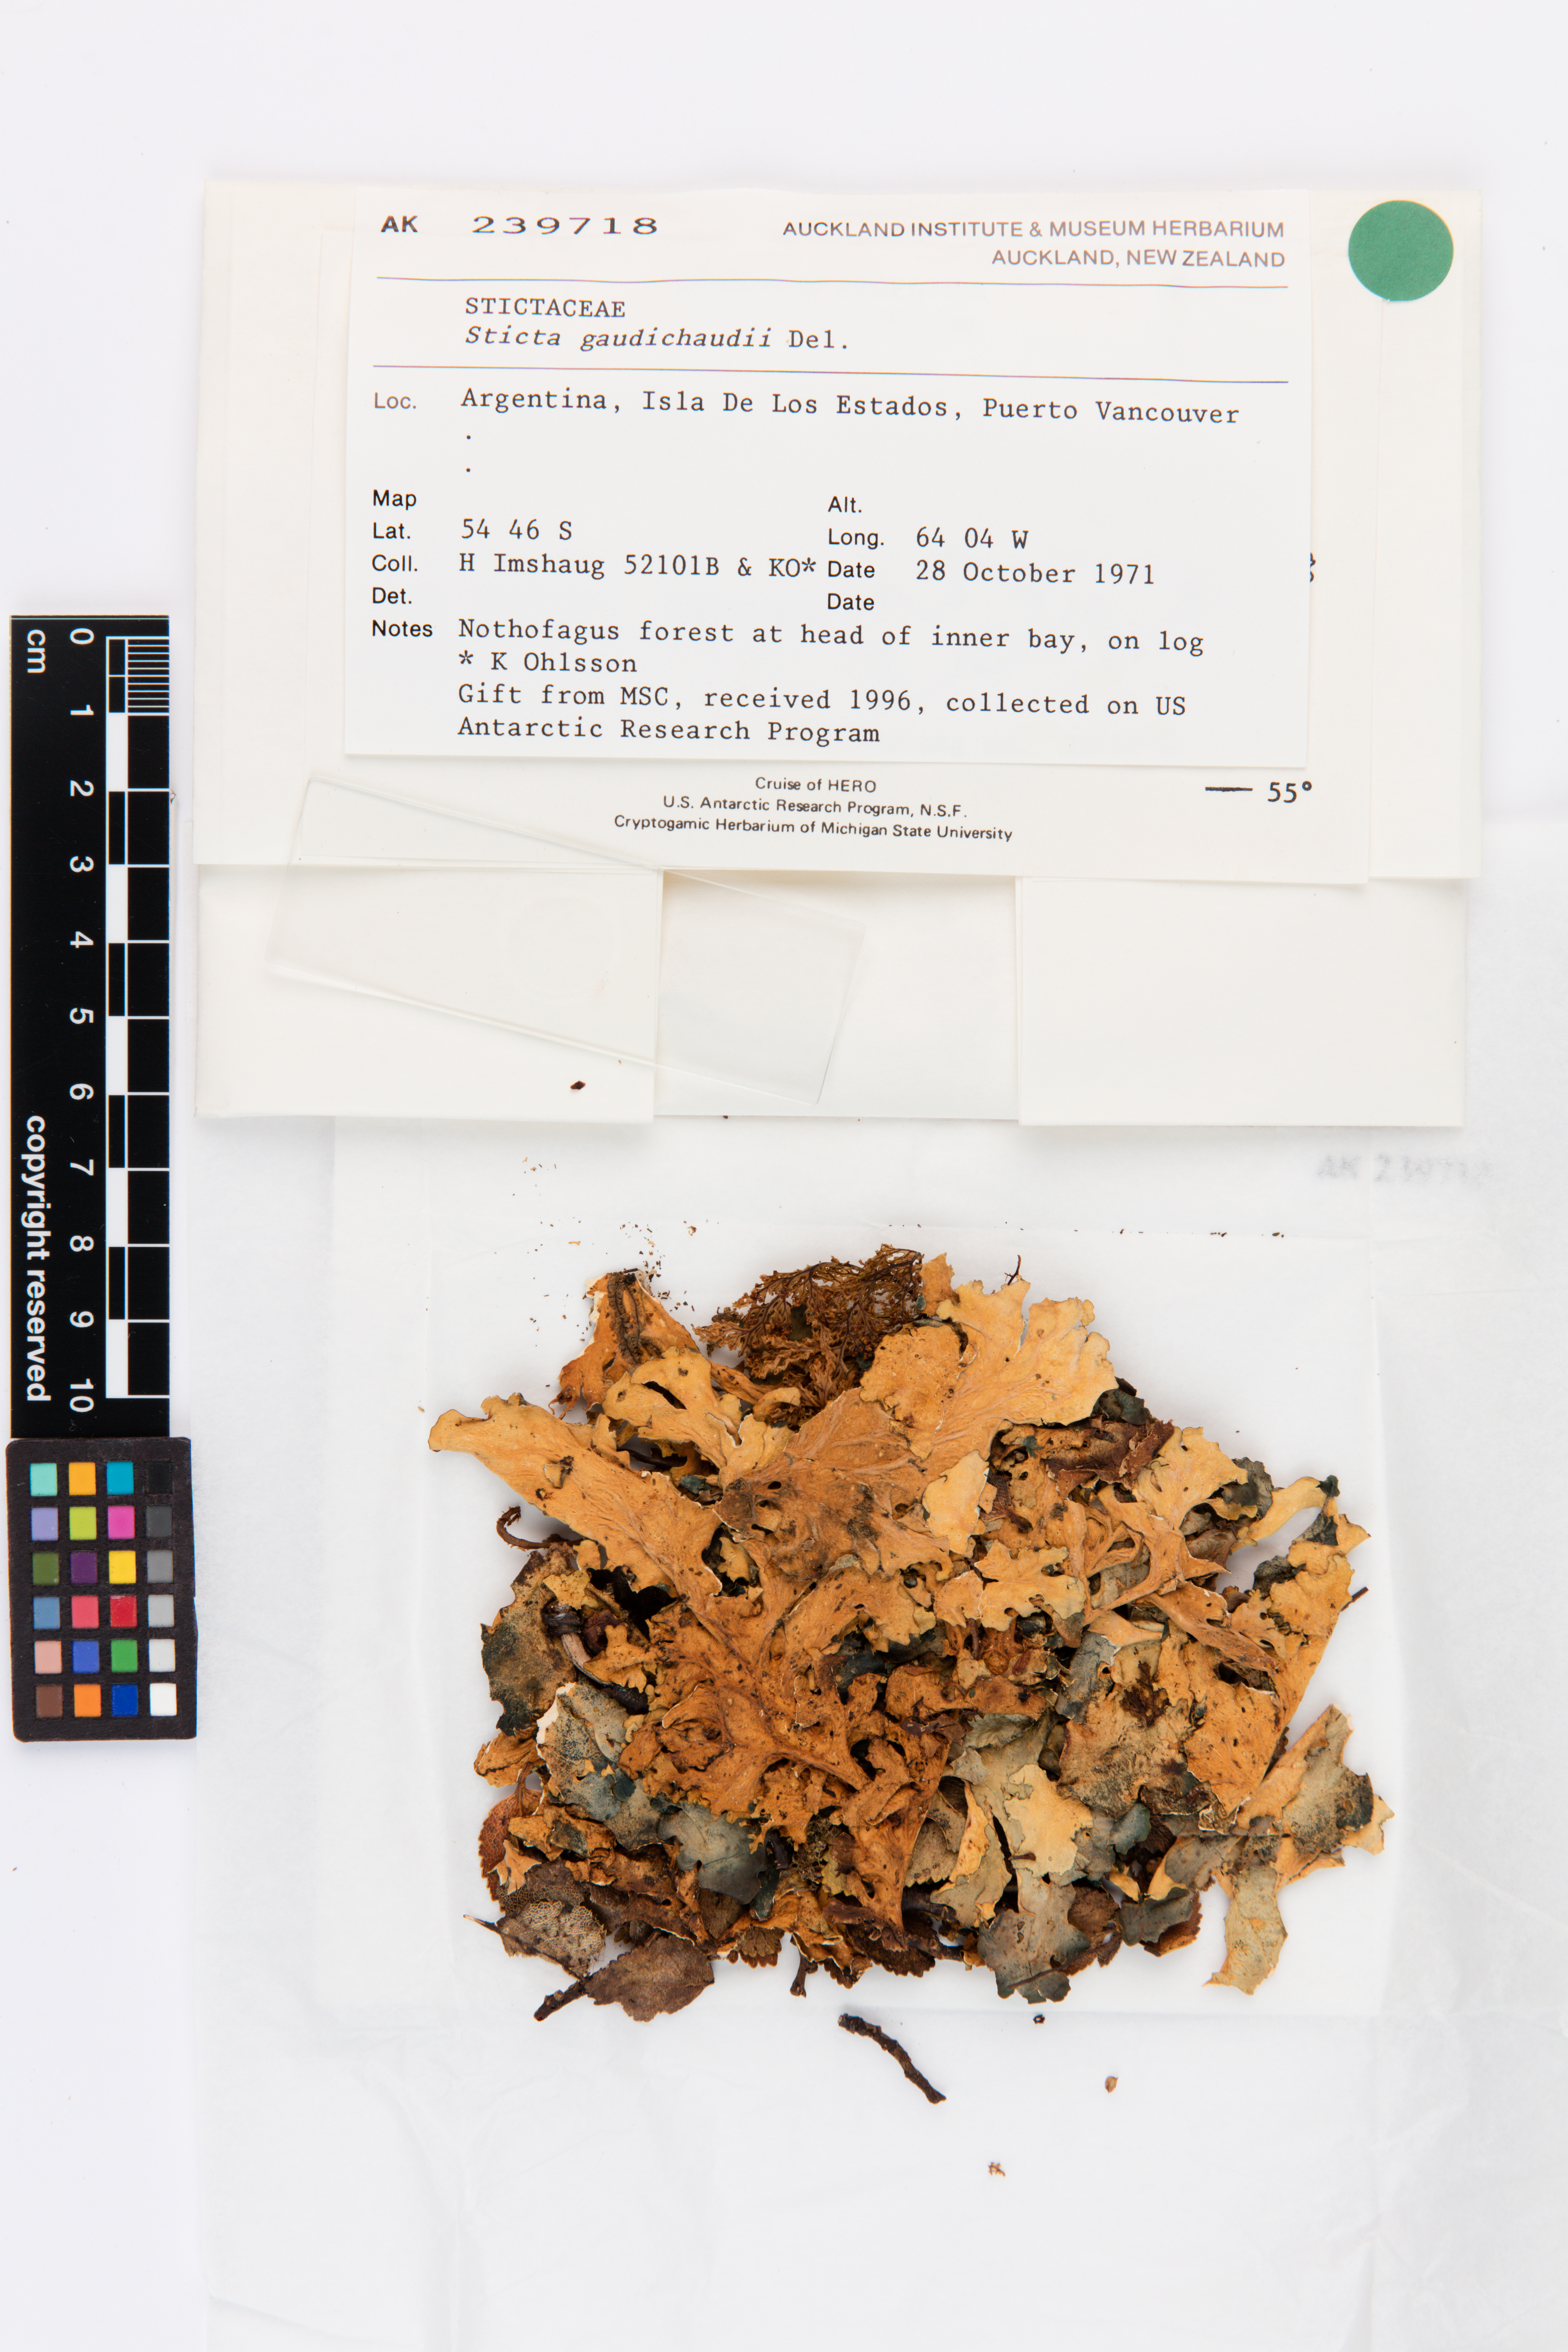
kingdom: Fungi
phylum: Ascomycota
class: Lecanoromycetes
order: Peltigerales
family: Lobariaceae
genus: Sticta
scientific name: Sticta gaudichaudii
